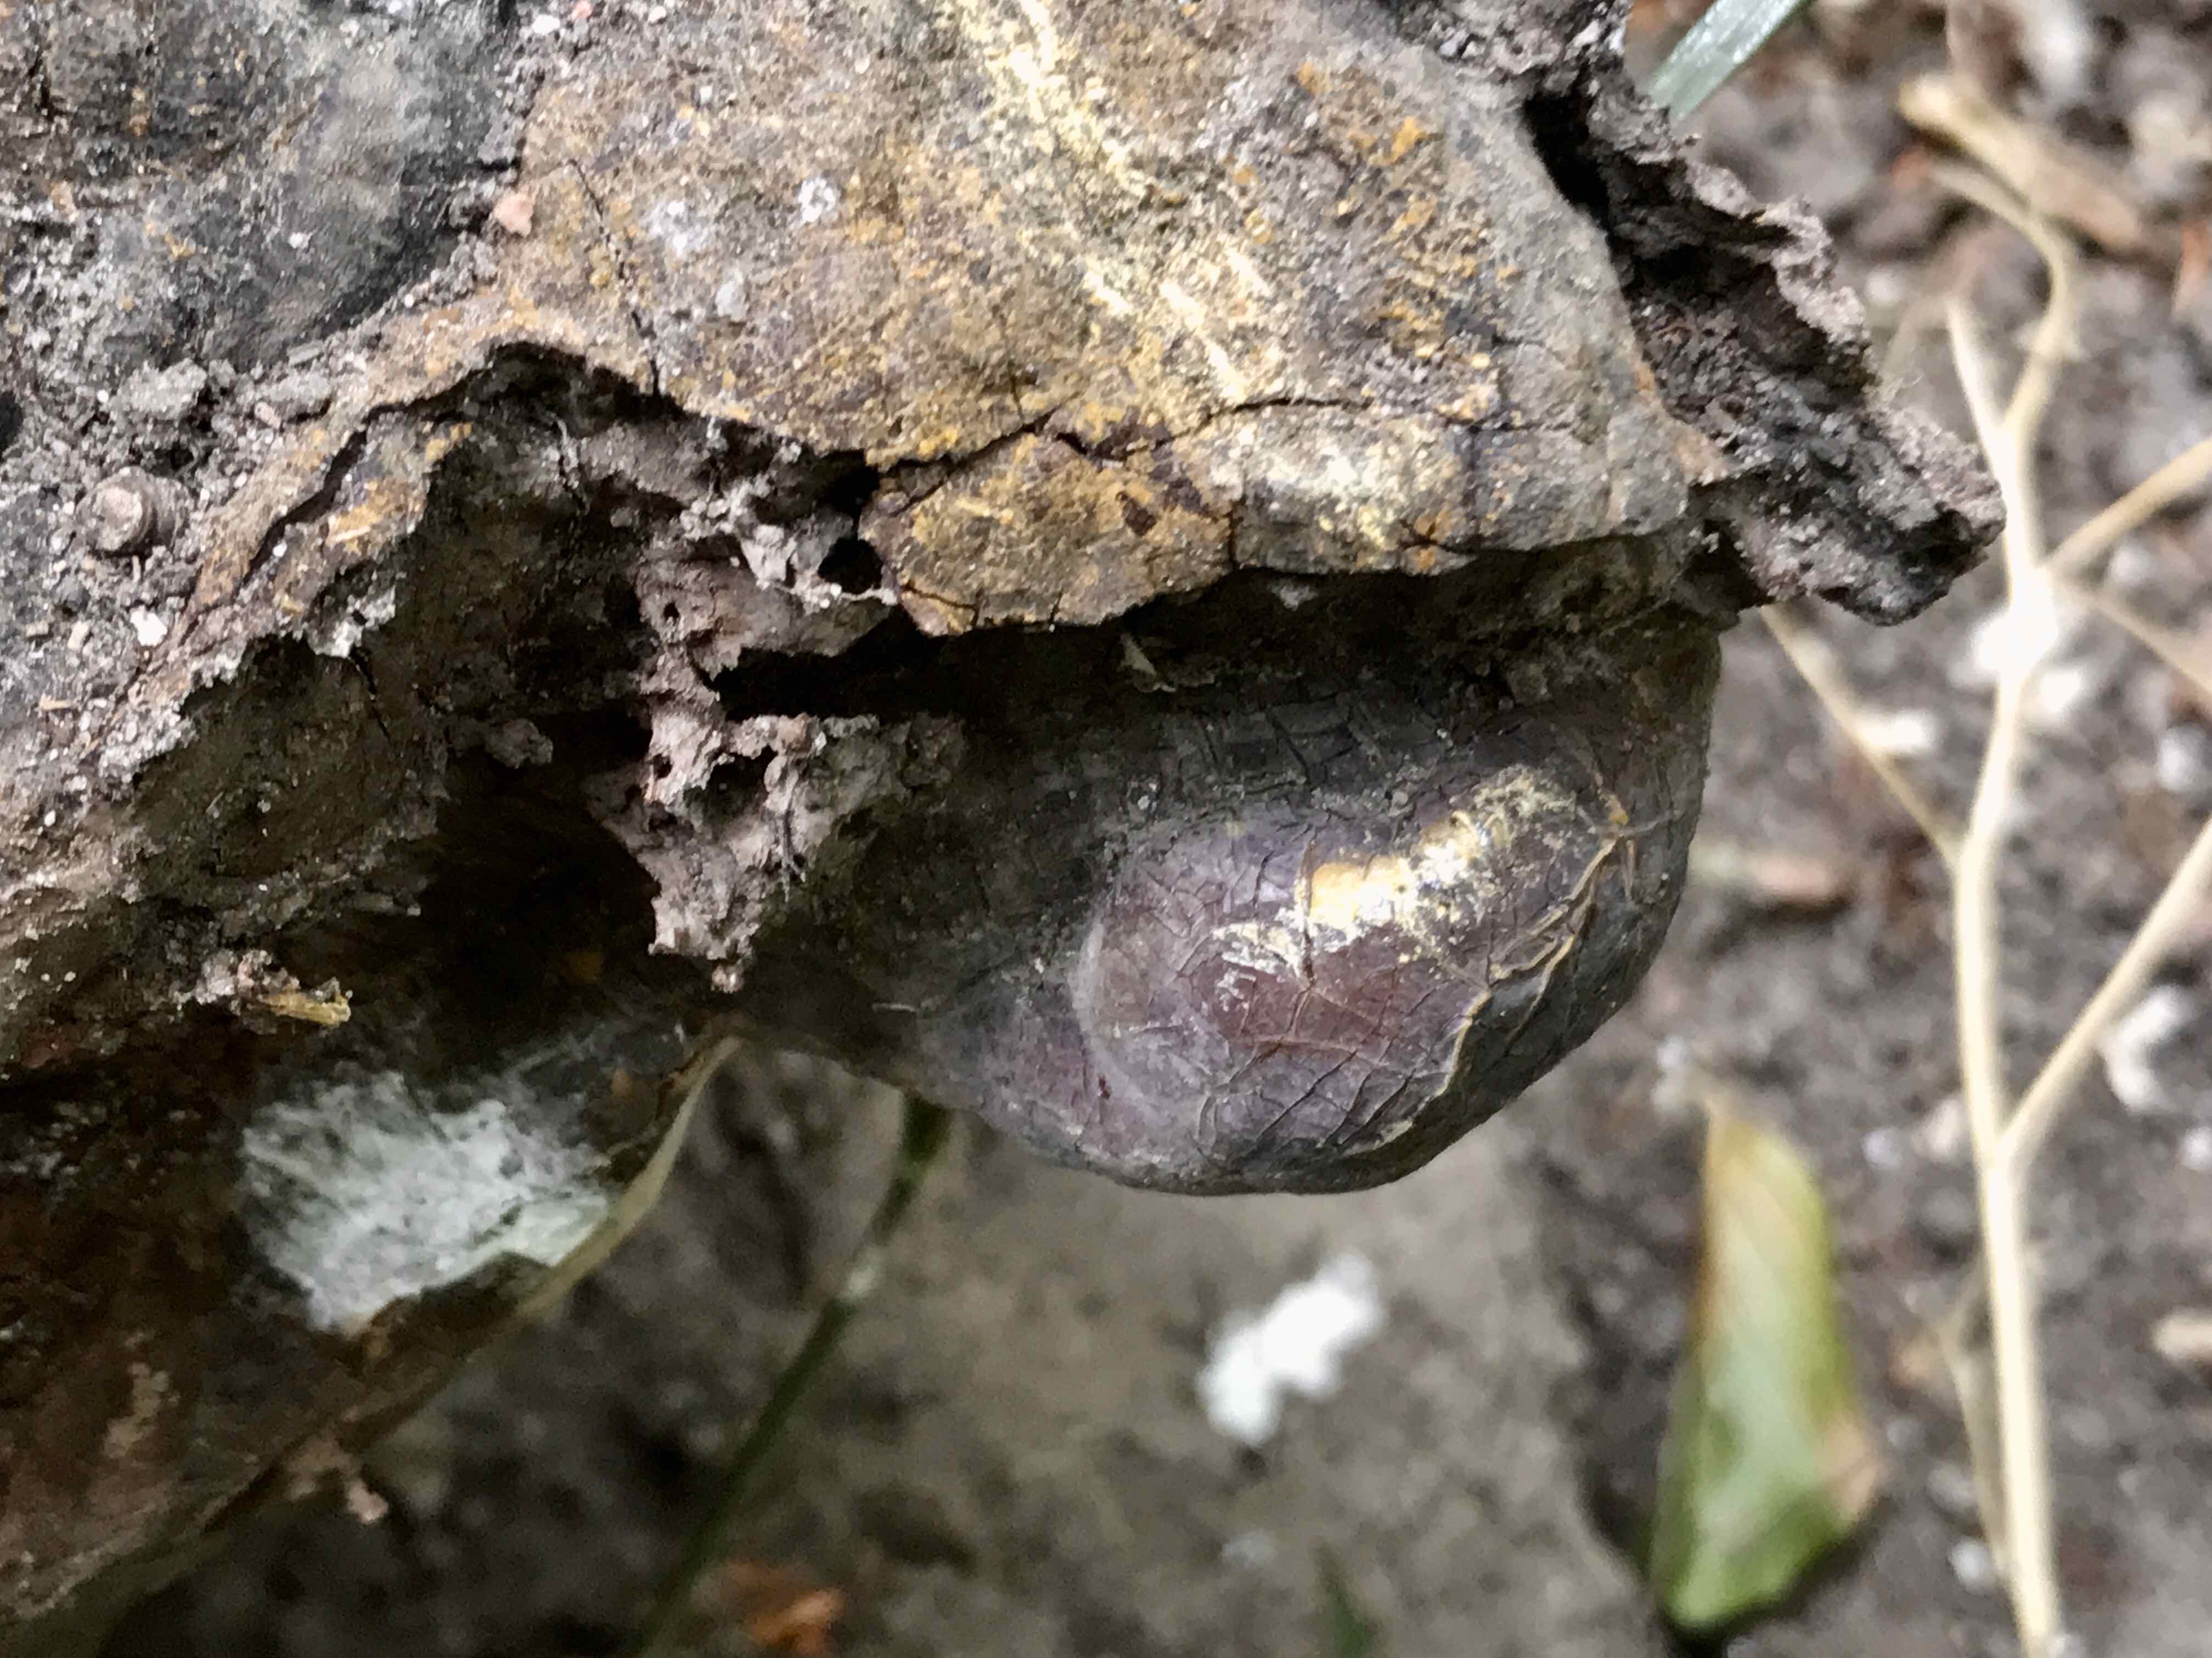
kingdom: Fungi
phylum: Basidiomycota
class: Agaricomycetes
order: Polyporales
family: Polyporaceae
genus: Ganoderma
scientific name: Ganoderma pfeifferi
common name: kobberrød lakporesvamp
